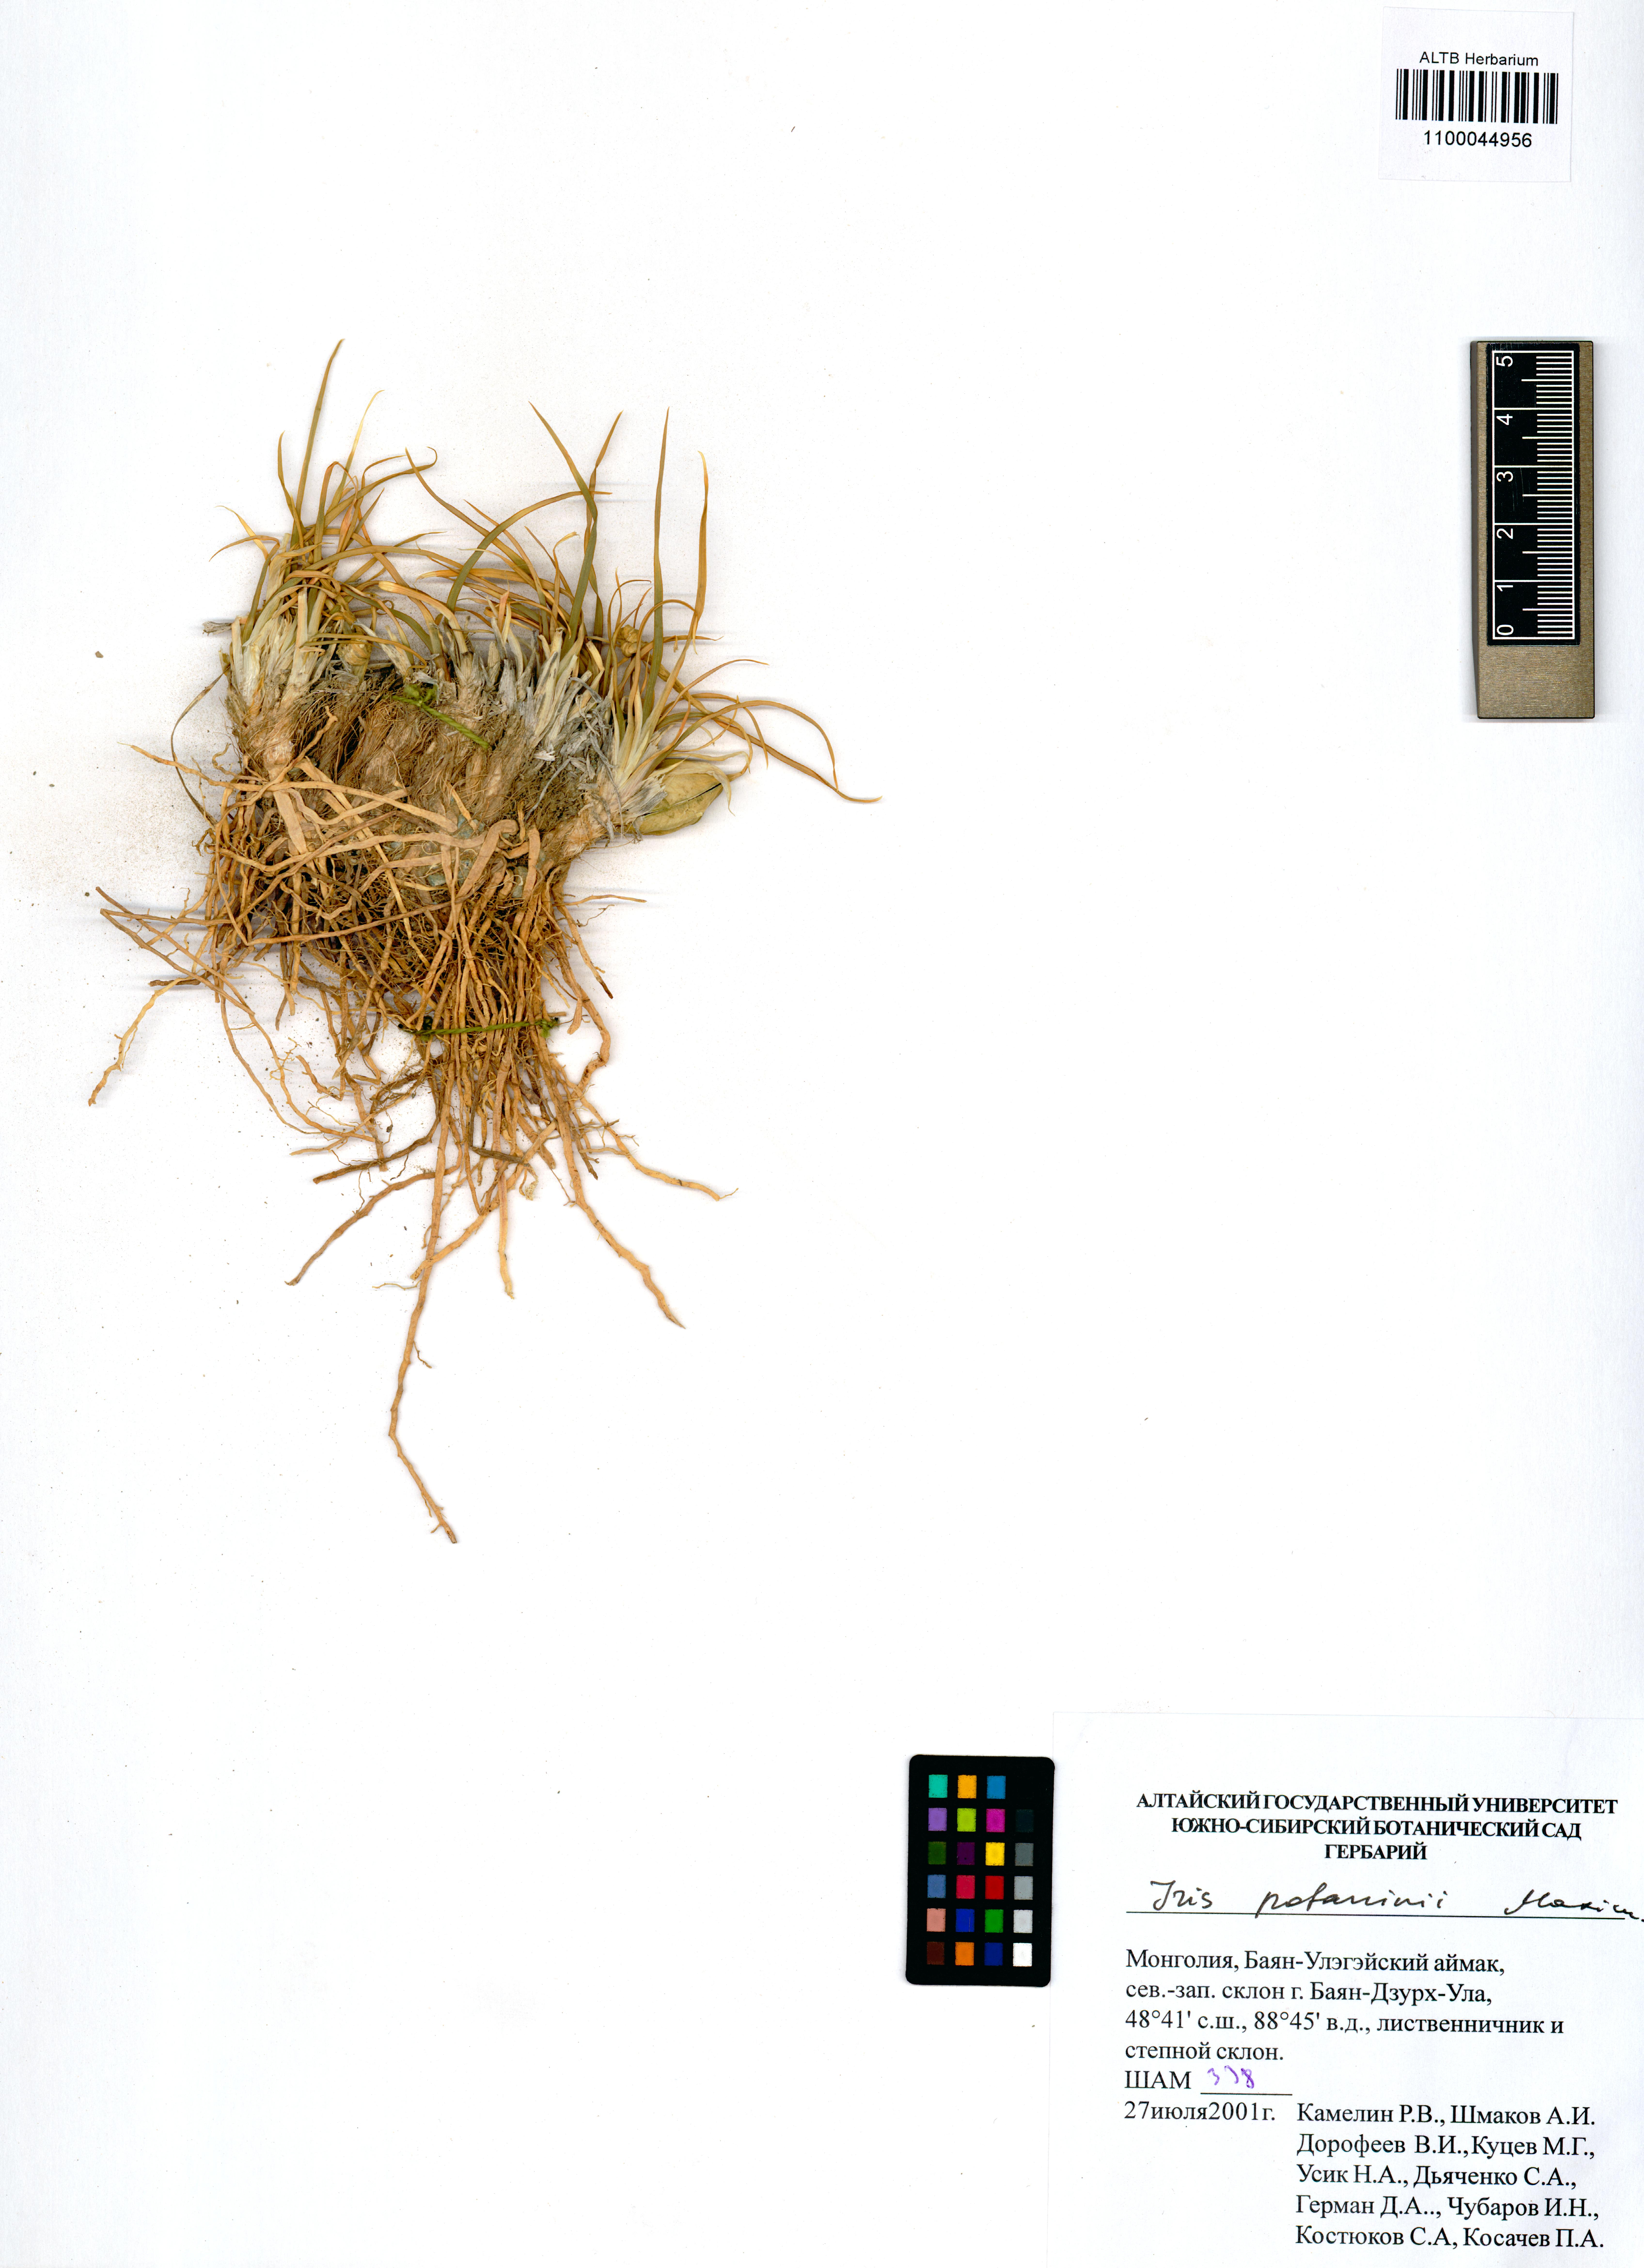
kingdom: Plantae
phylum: Tracheophyta
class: Liliopsida
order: Asparagales
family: Iridaceae
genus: Iris
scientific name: Iris potaninii
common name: Curl-sheath iris
